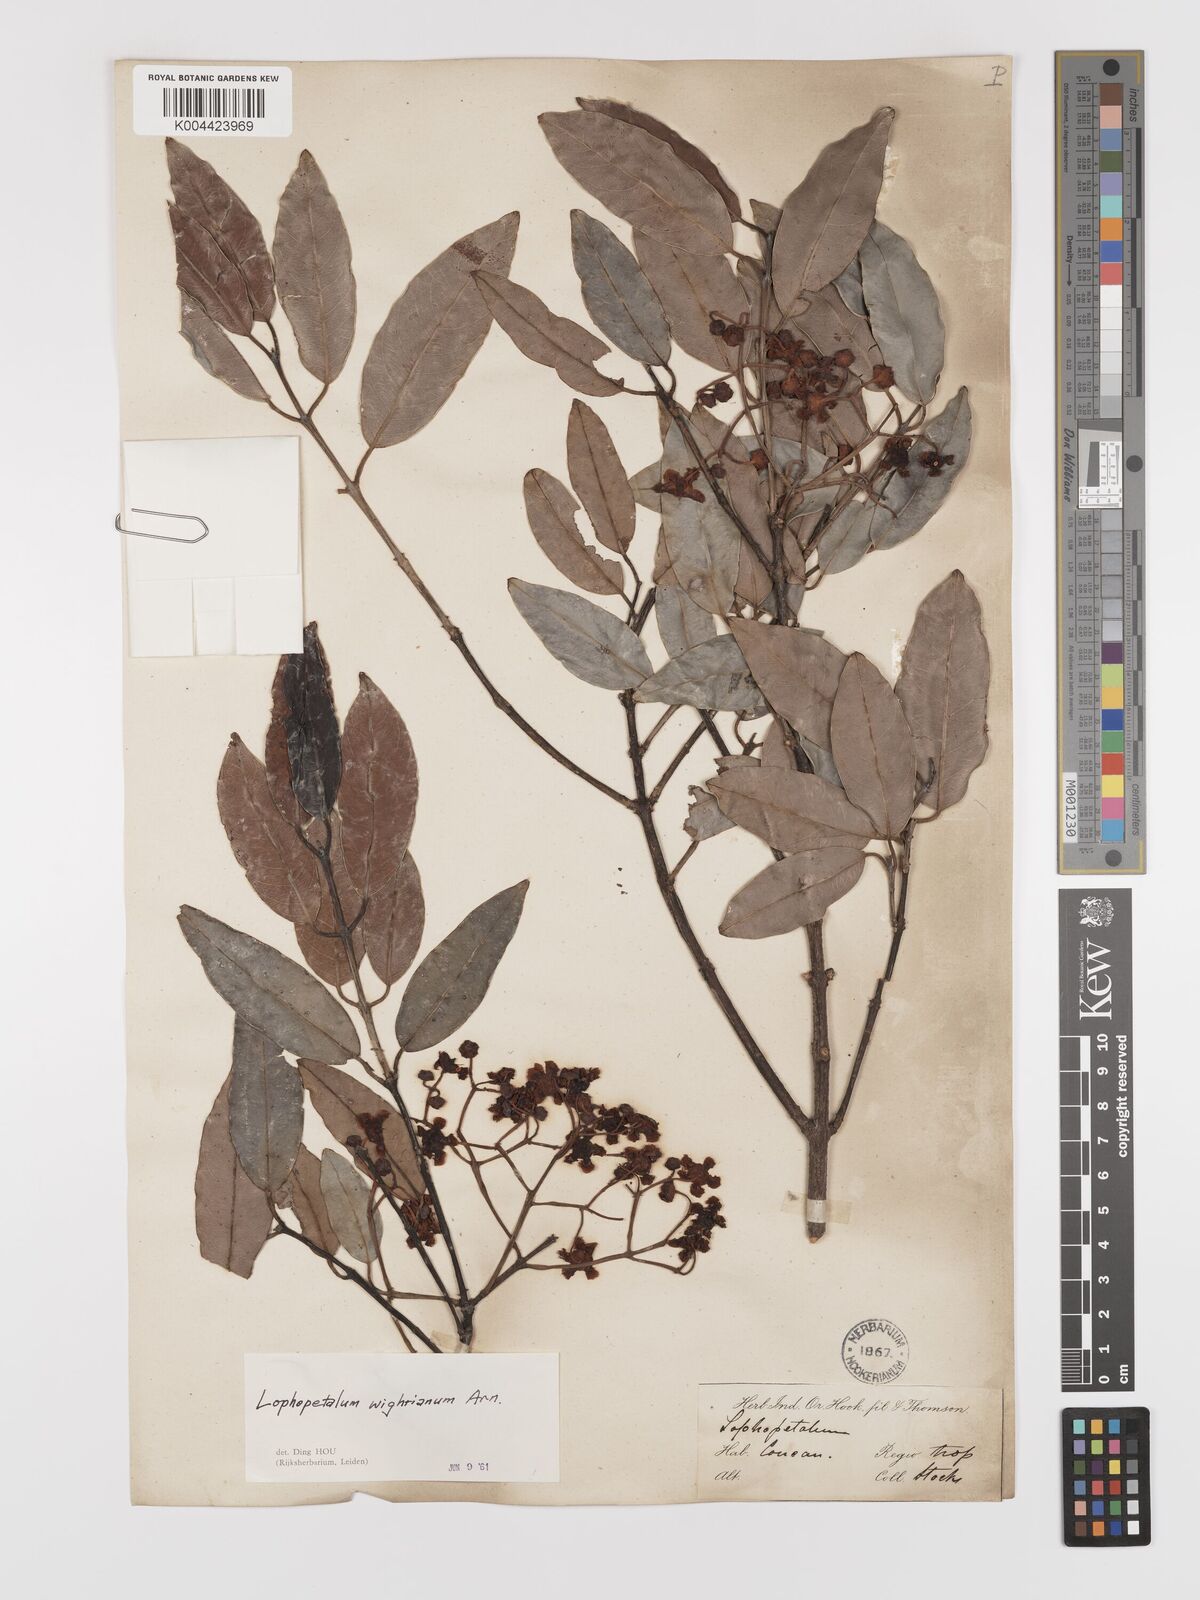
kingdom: Plantae
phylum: Tracheophyta
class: Magnoliopsida
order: Celastrales
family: Celastraceae
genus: Lophopetalum
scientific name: Lophopetalum wightianum
